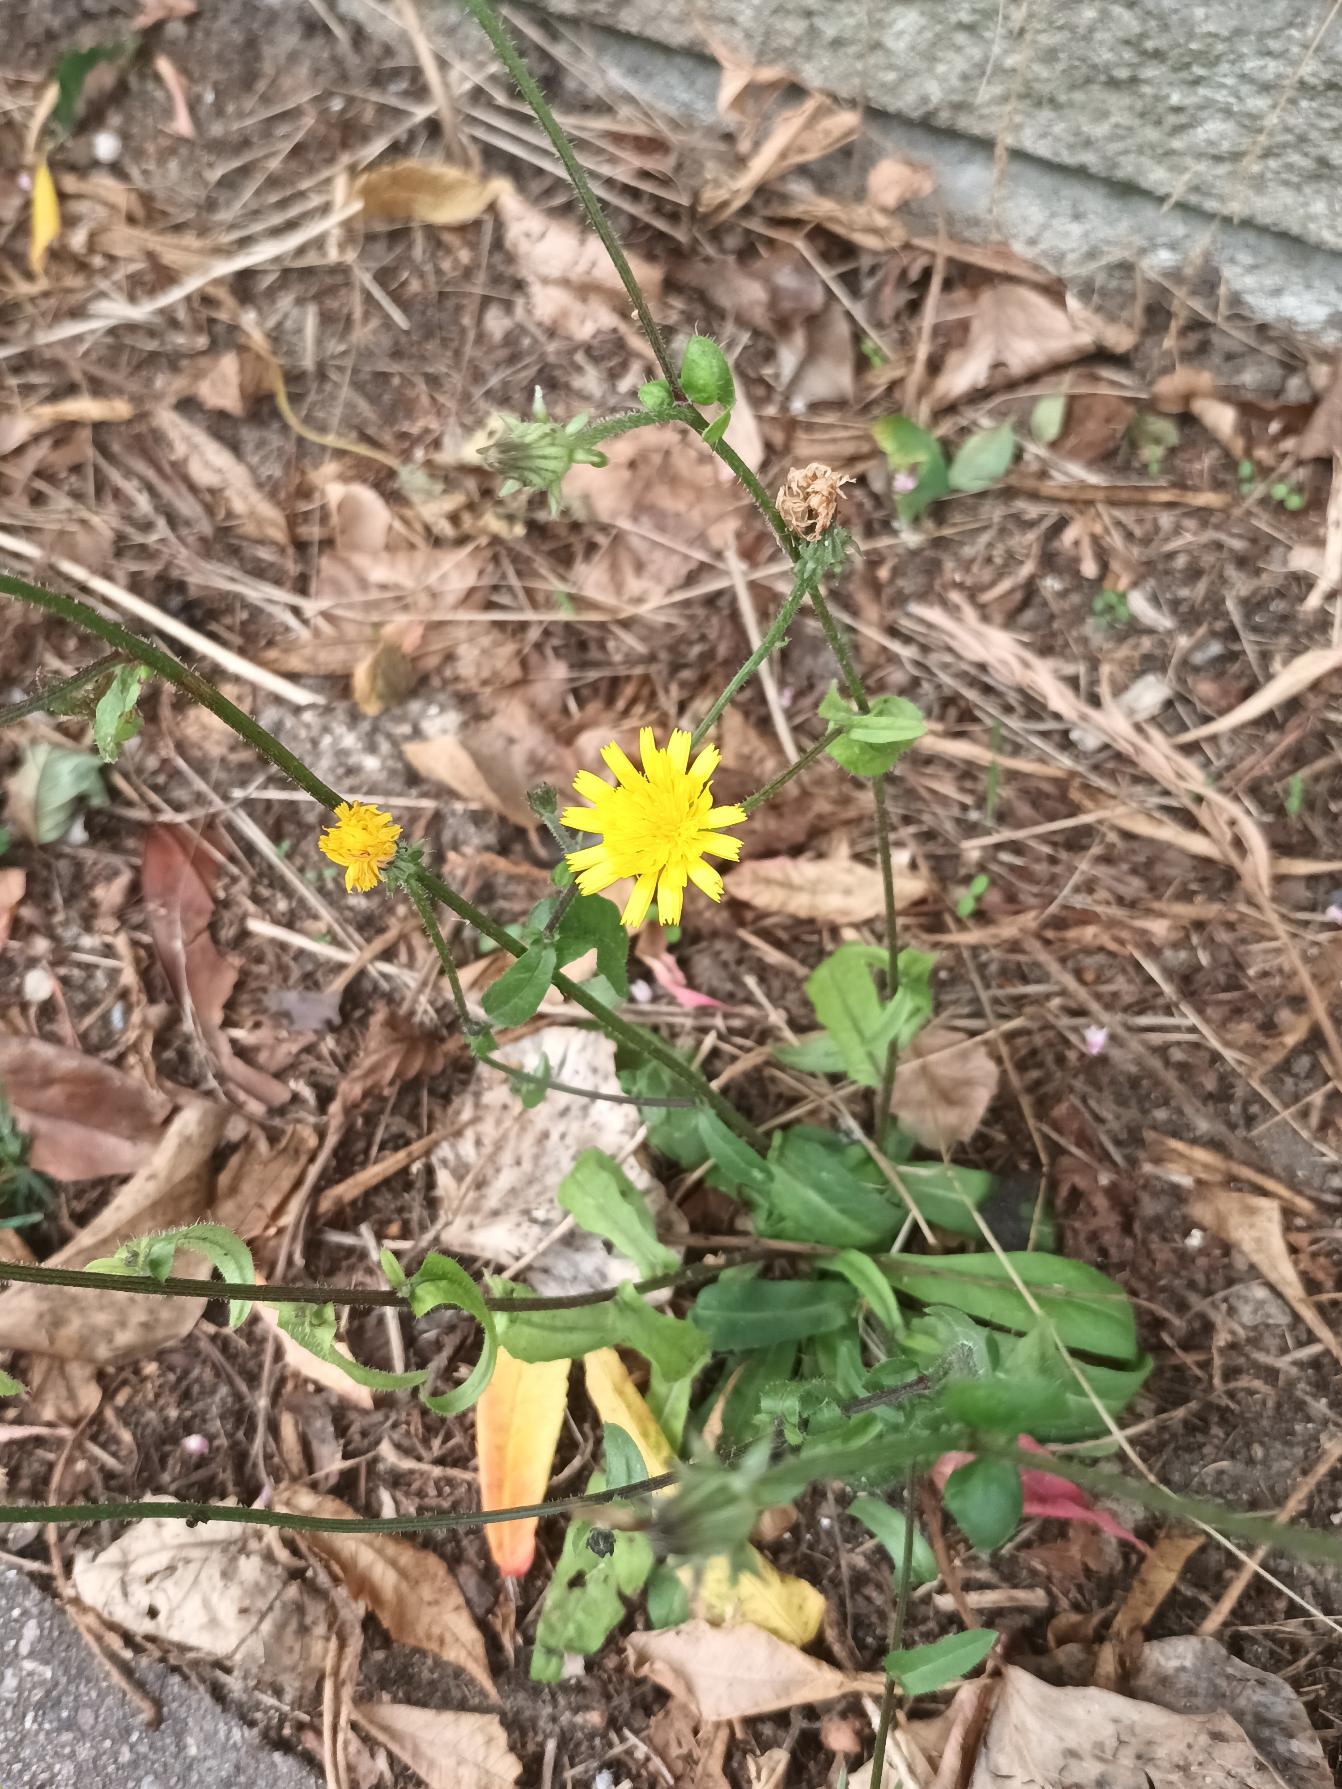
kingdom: Plantae
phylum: Tracheophyta
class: Magnoliopsida
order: Asterales
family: Asteraceae
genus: Picris
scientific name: Picris hieracioides
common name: Ru bittermælk
